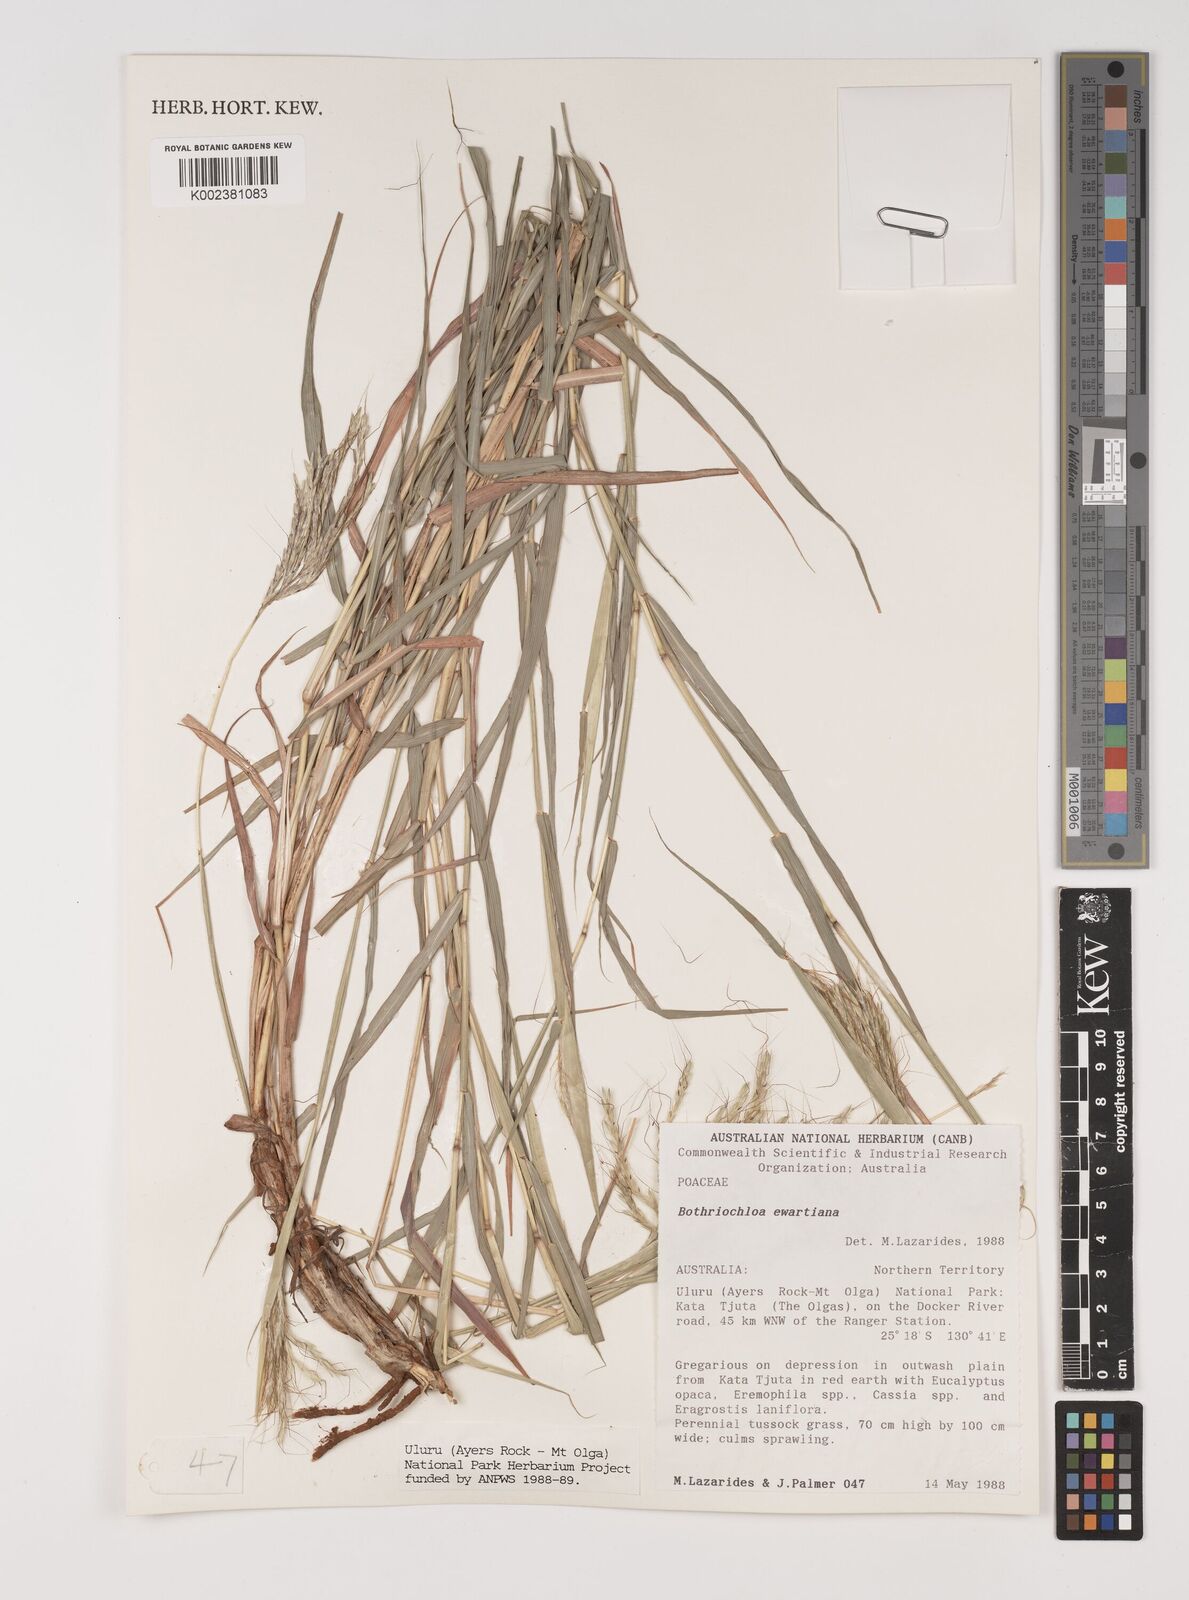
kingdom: Plantae
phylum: Tracheophyta
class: Liliopsida
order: Poales
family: Poaceae
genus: Bothriochloa
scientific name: Bothriochloa ewartiana
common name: Desert-bluegrass
